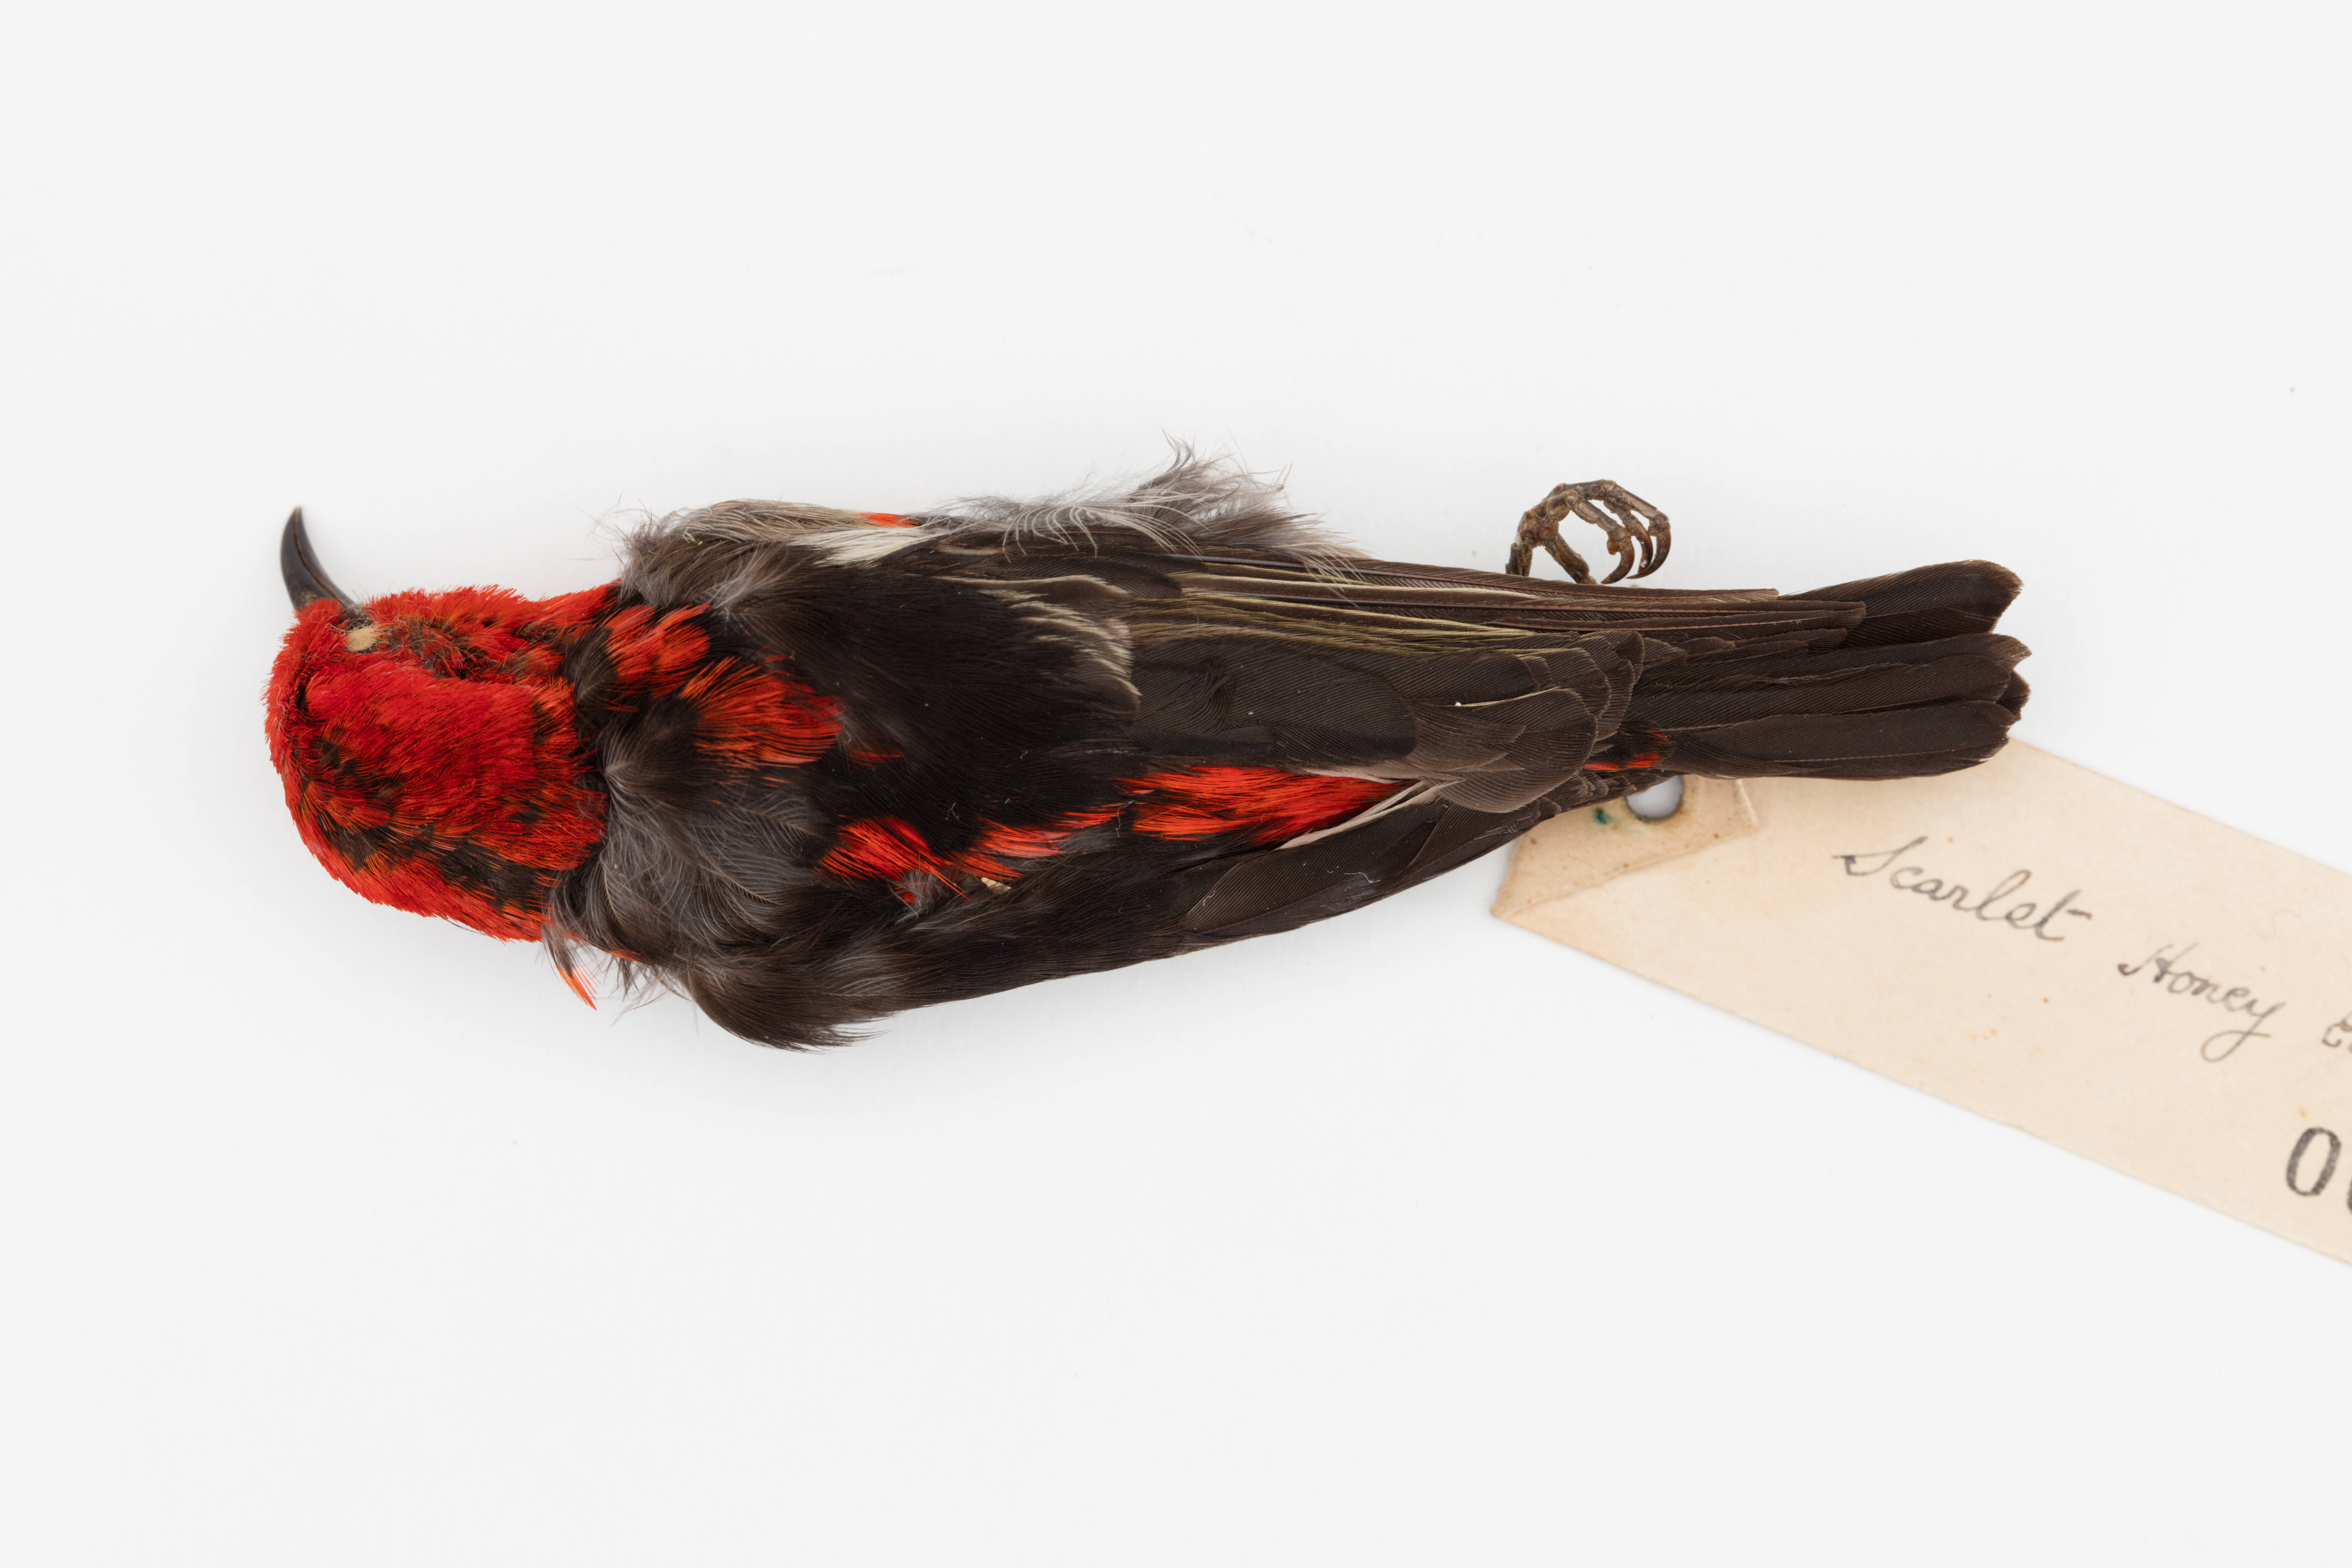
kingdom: Animalia
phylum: Chordata
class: Aves
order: Passeriformes
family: Meliphagidae
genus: Myzomela
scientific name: Myzomela sanguinolenta
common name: Scarlet myzomela
